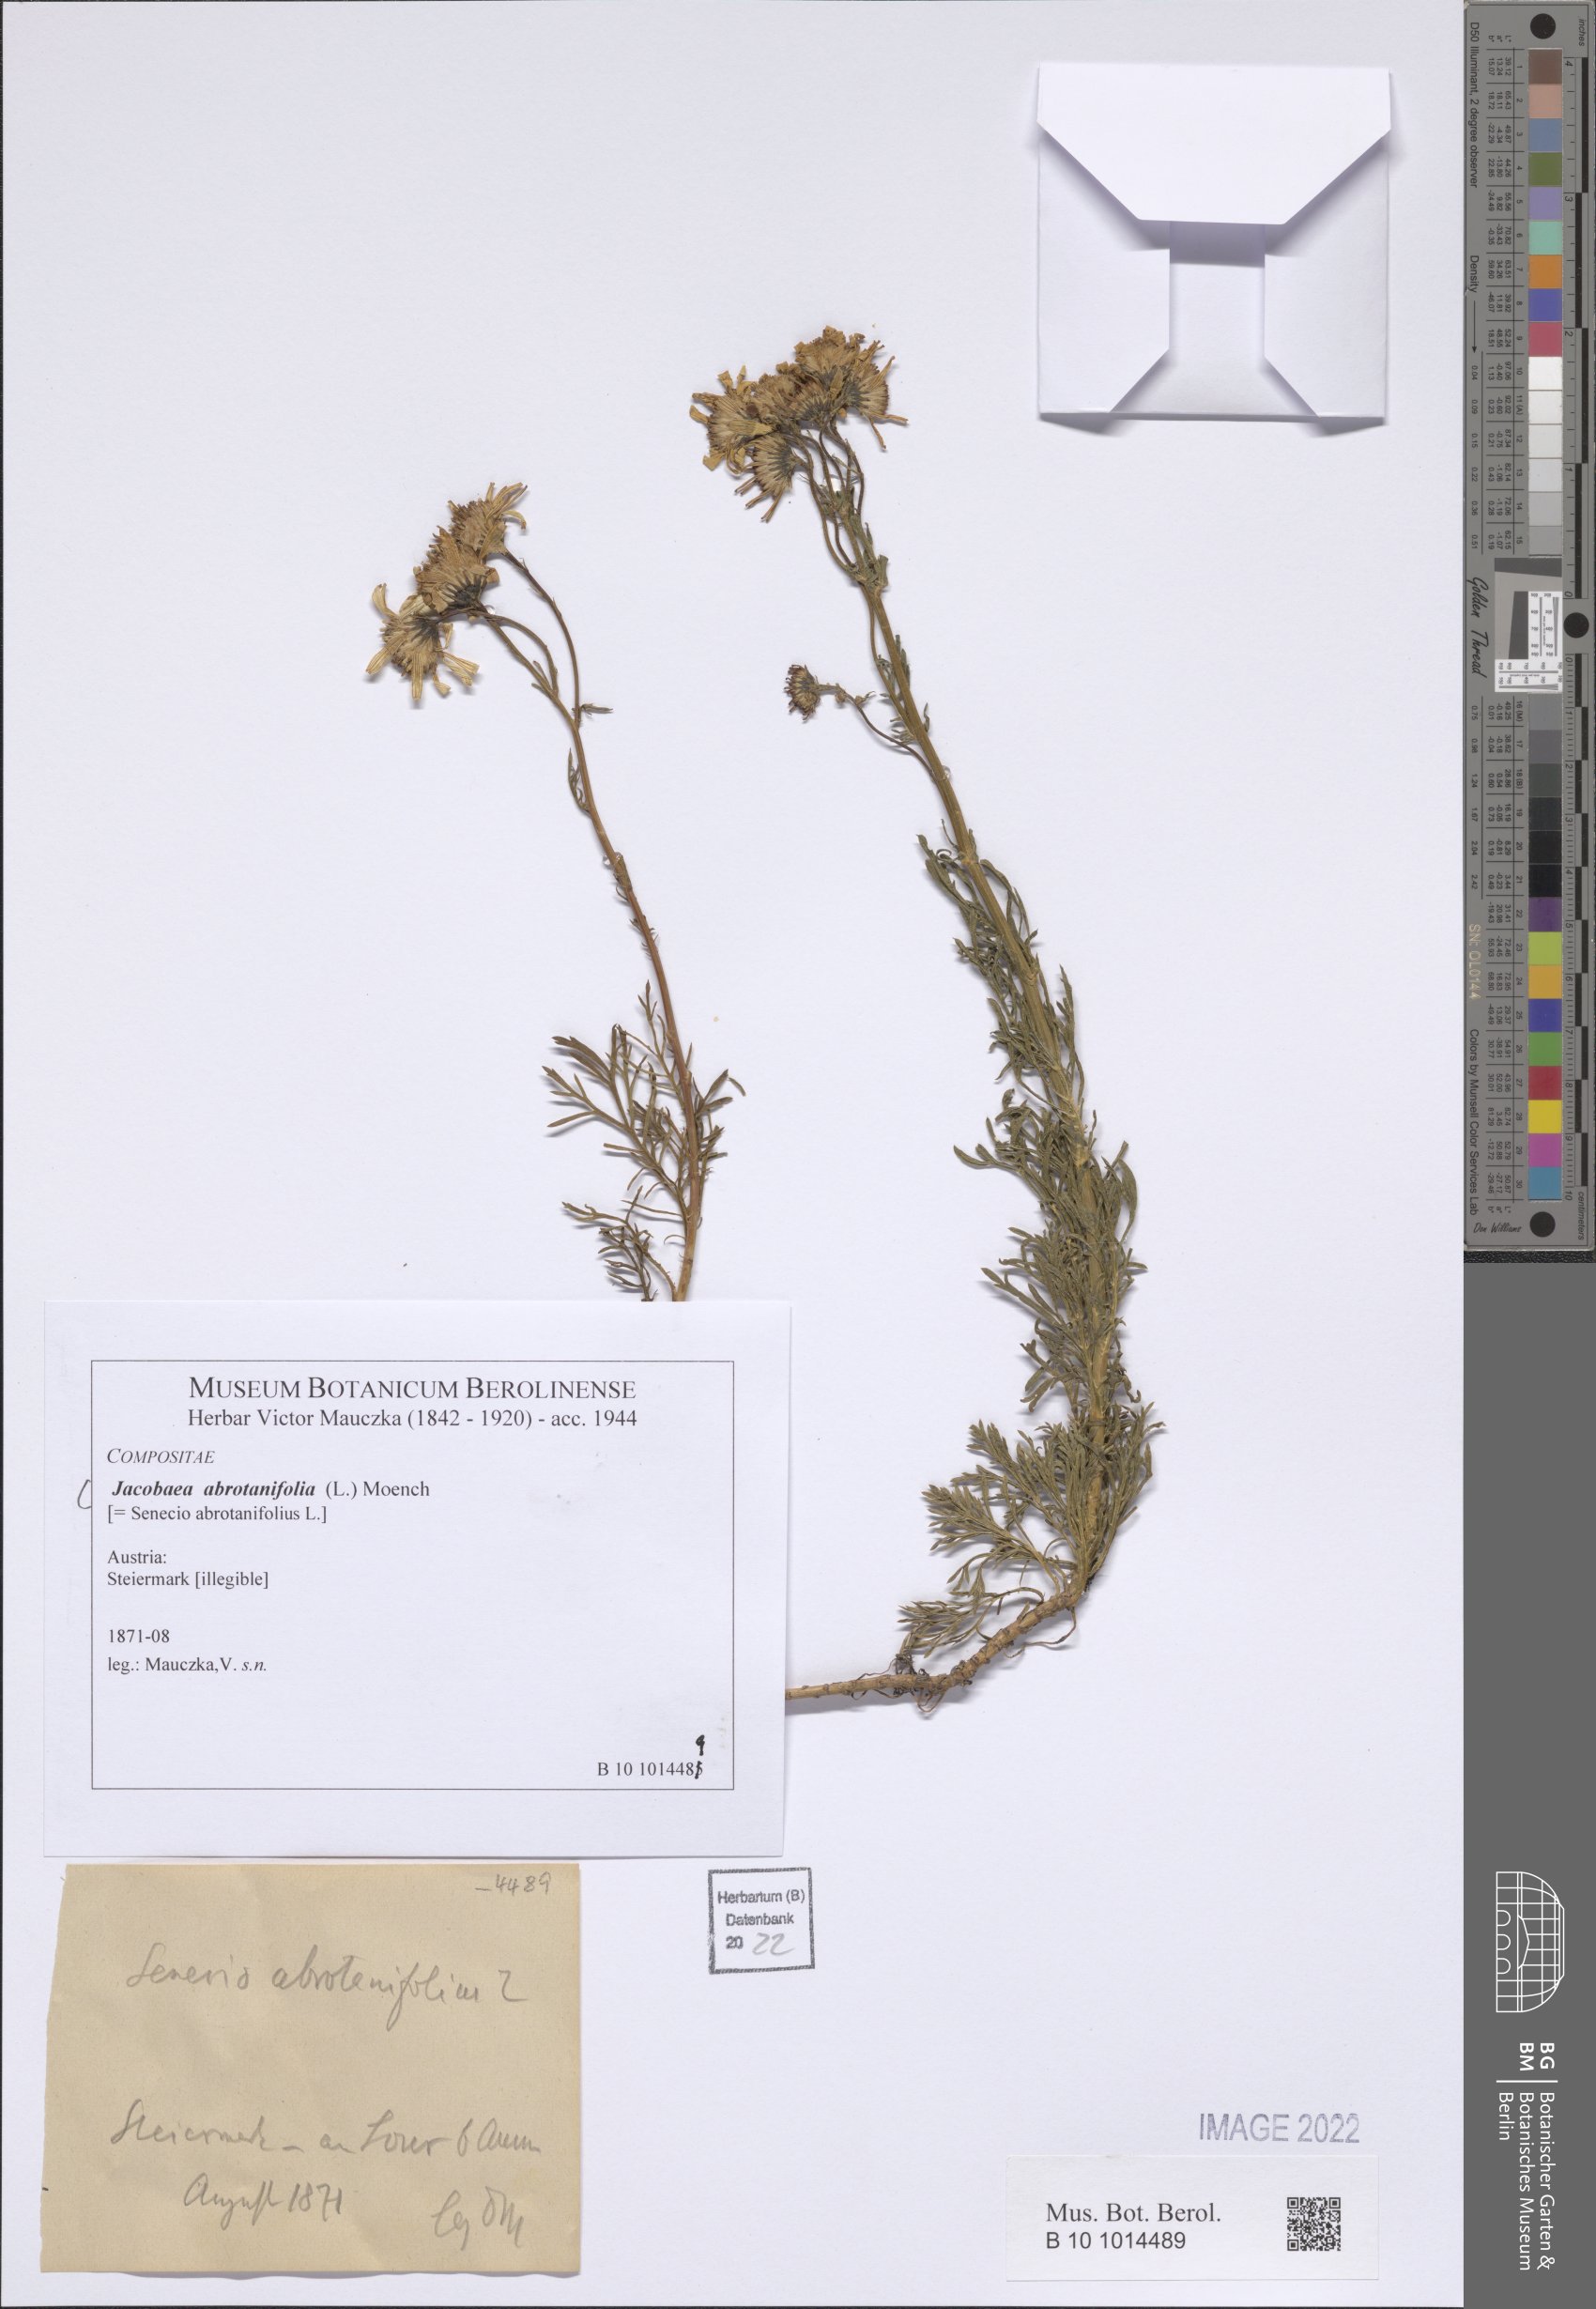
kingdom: Plantae
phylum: Tracheophyta
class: Magnoliopsida
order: Asterales
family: Asteraceae
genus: Jacobaea
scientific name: Jacobaea abrotanifolia
